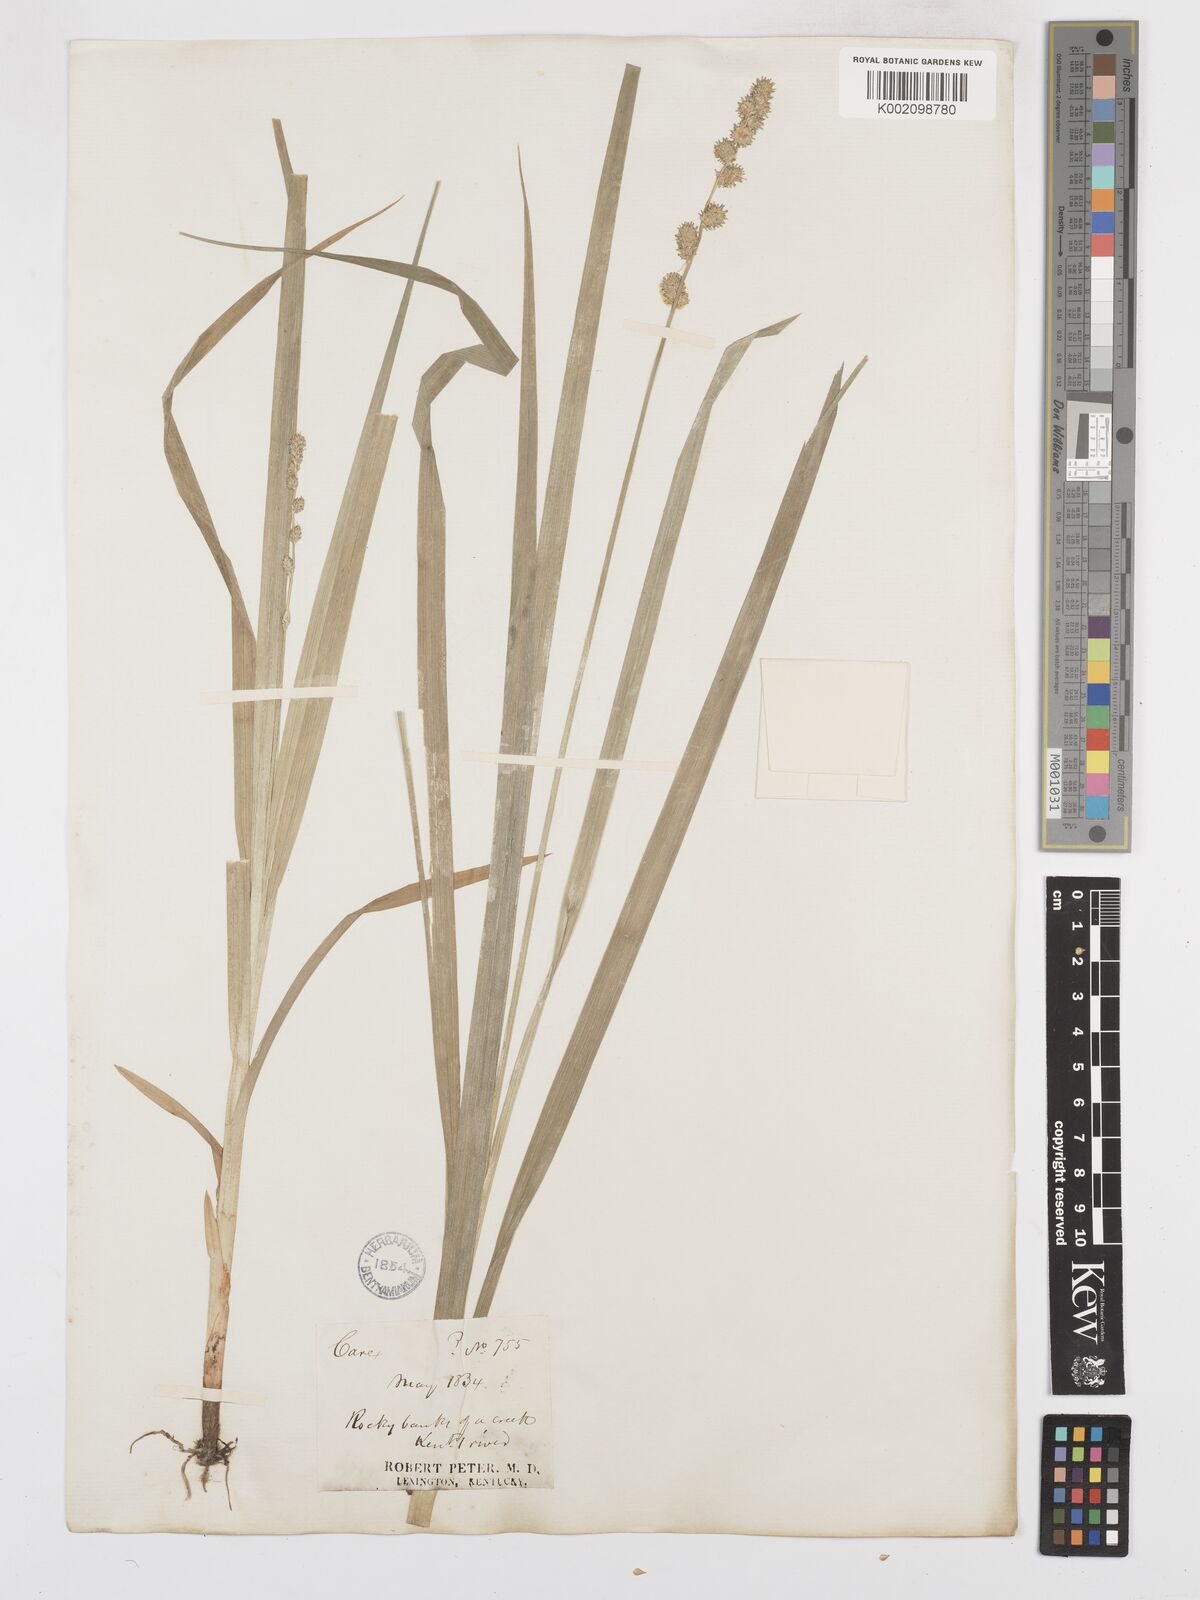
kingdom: Plantae
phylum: Tracheophyta
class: Liliopsida
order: Poales
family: Cyperaceae
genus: Carex
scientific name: Carex sparganioides
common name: Burreed sedge
